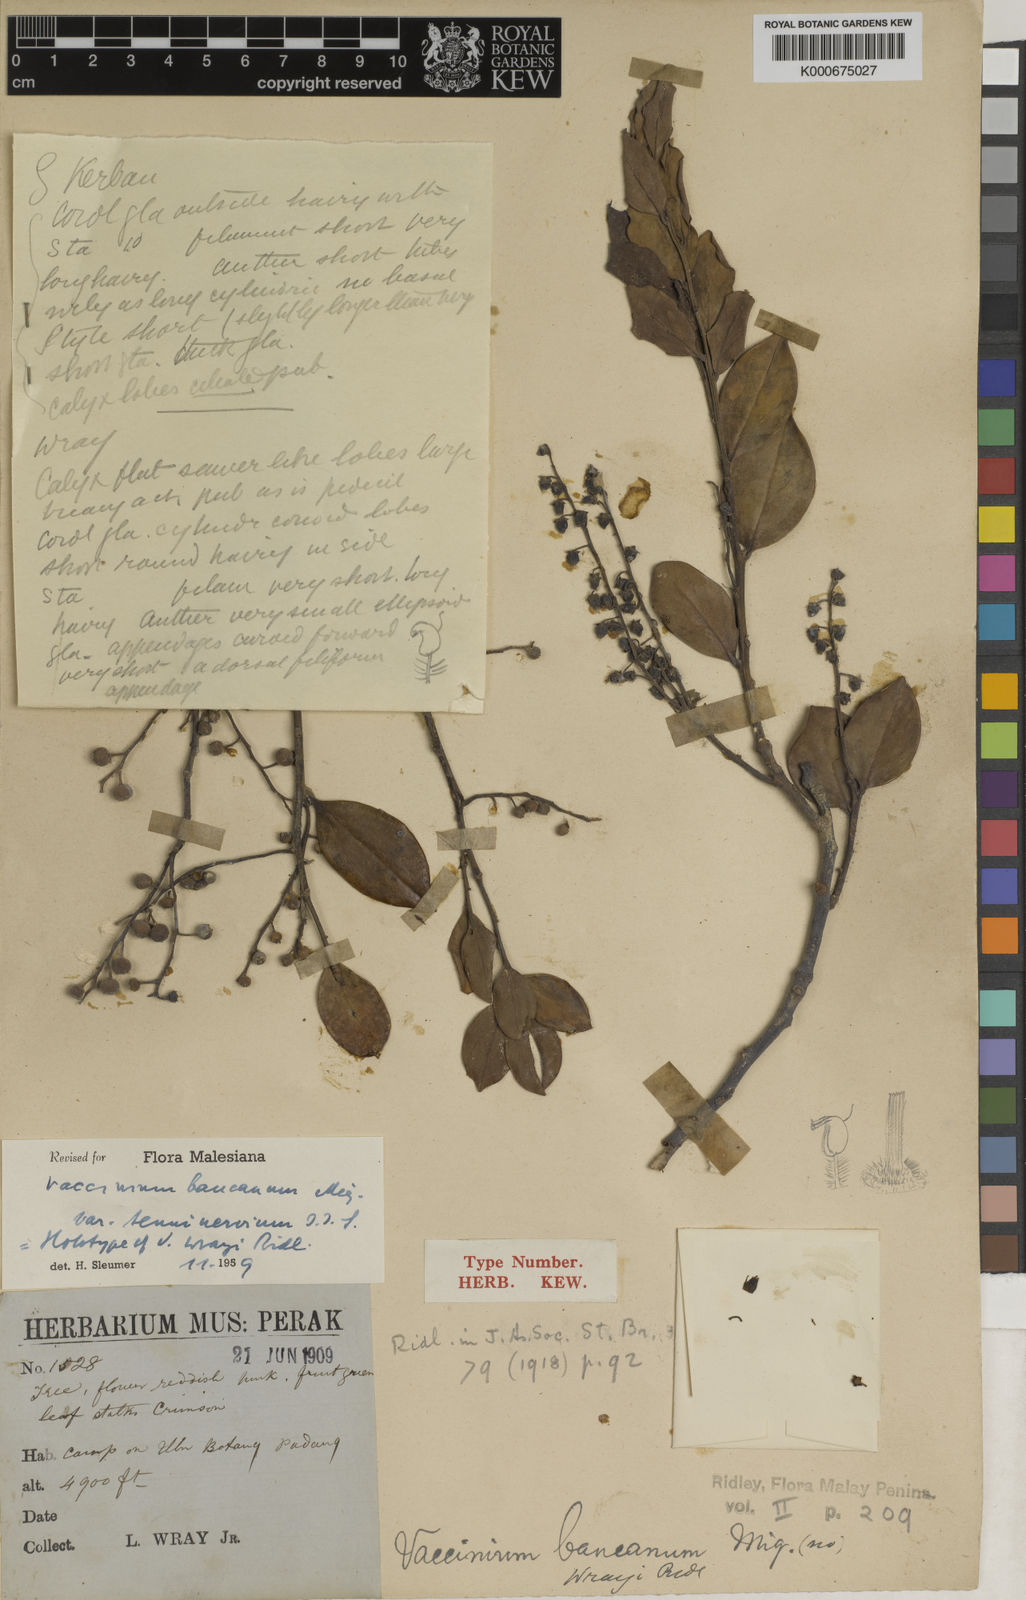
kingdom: Plantae
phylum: Tracheophyta
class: Magnoliopsida
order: Ericales
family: Ericaceae
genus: Vaccinium
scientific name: Vaccinium bancanum
